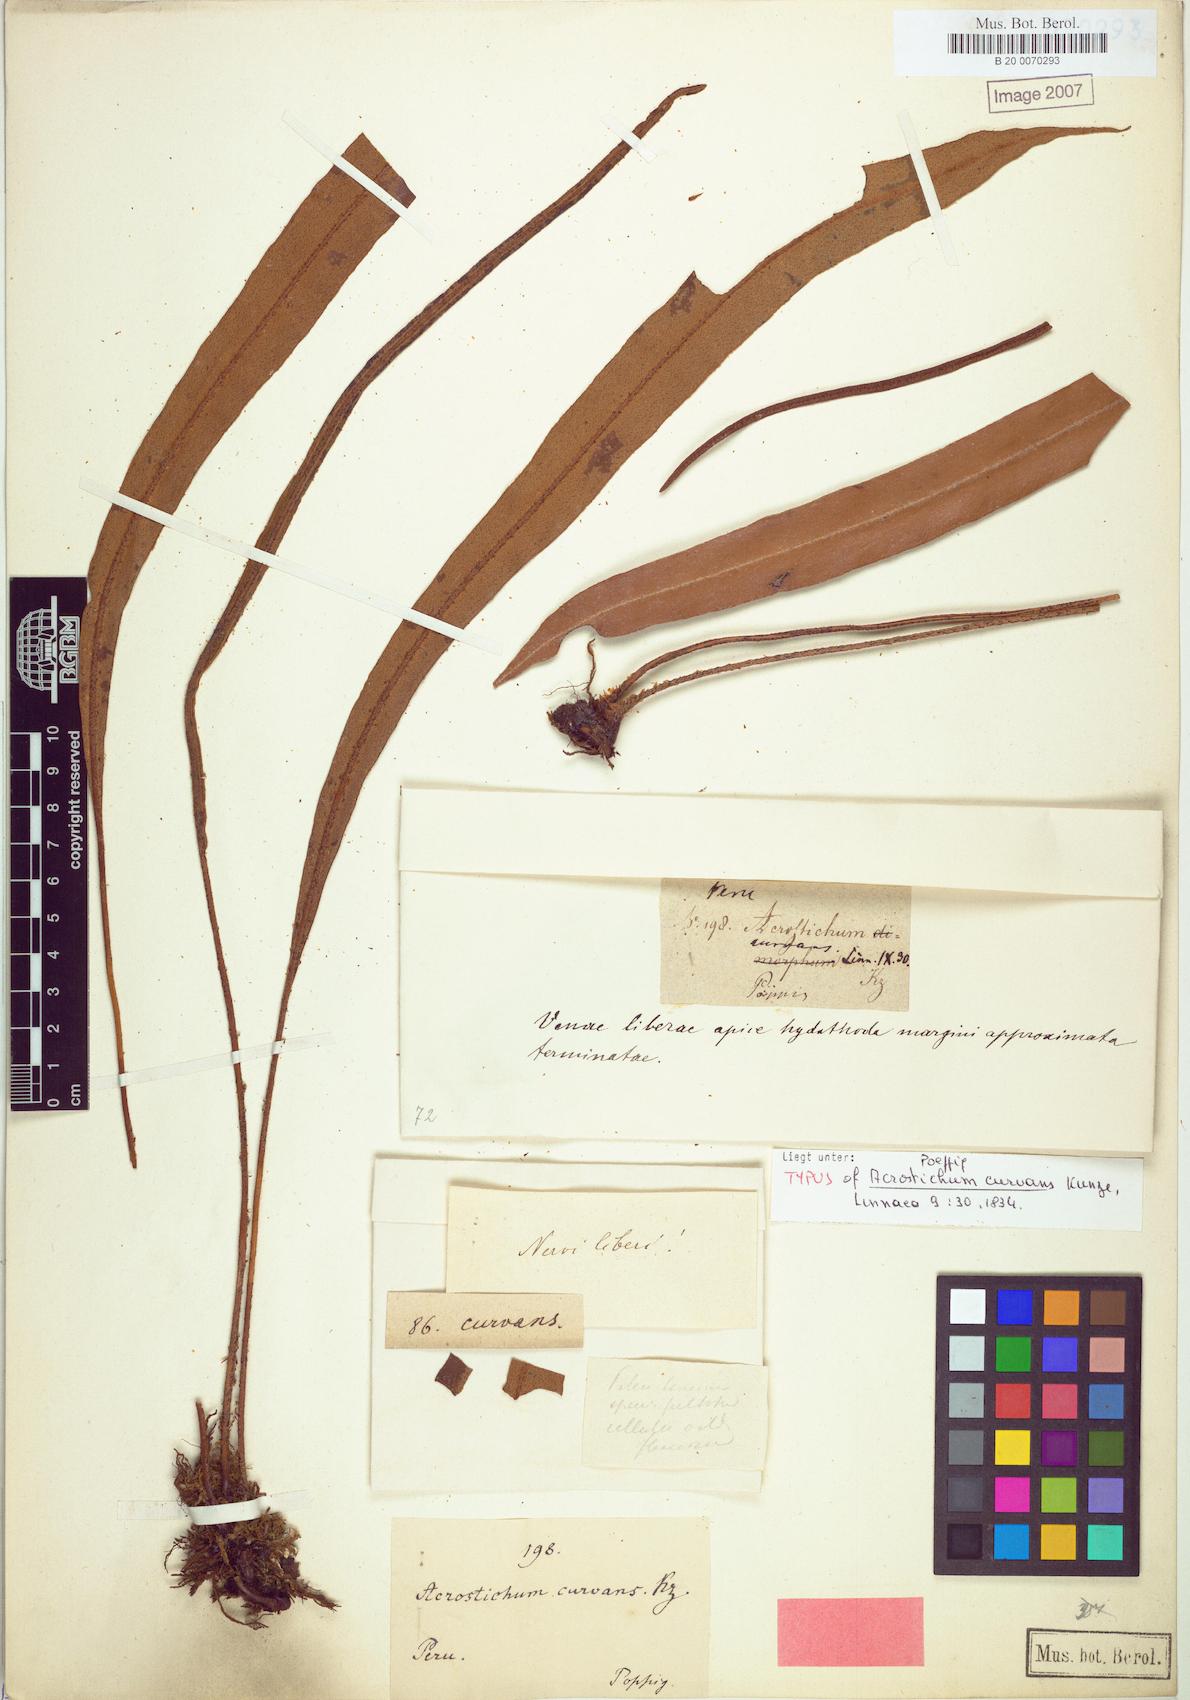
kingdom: Plantae
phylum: Tracheophyta
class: Polypodiopsida
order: Polypodiales
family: Dryopteridaceae
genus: Elaphoglossum
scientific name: Elaphoglossum curvans
